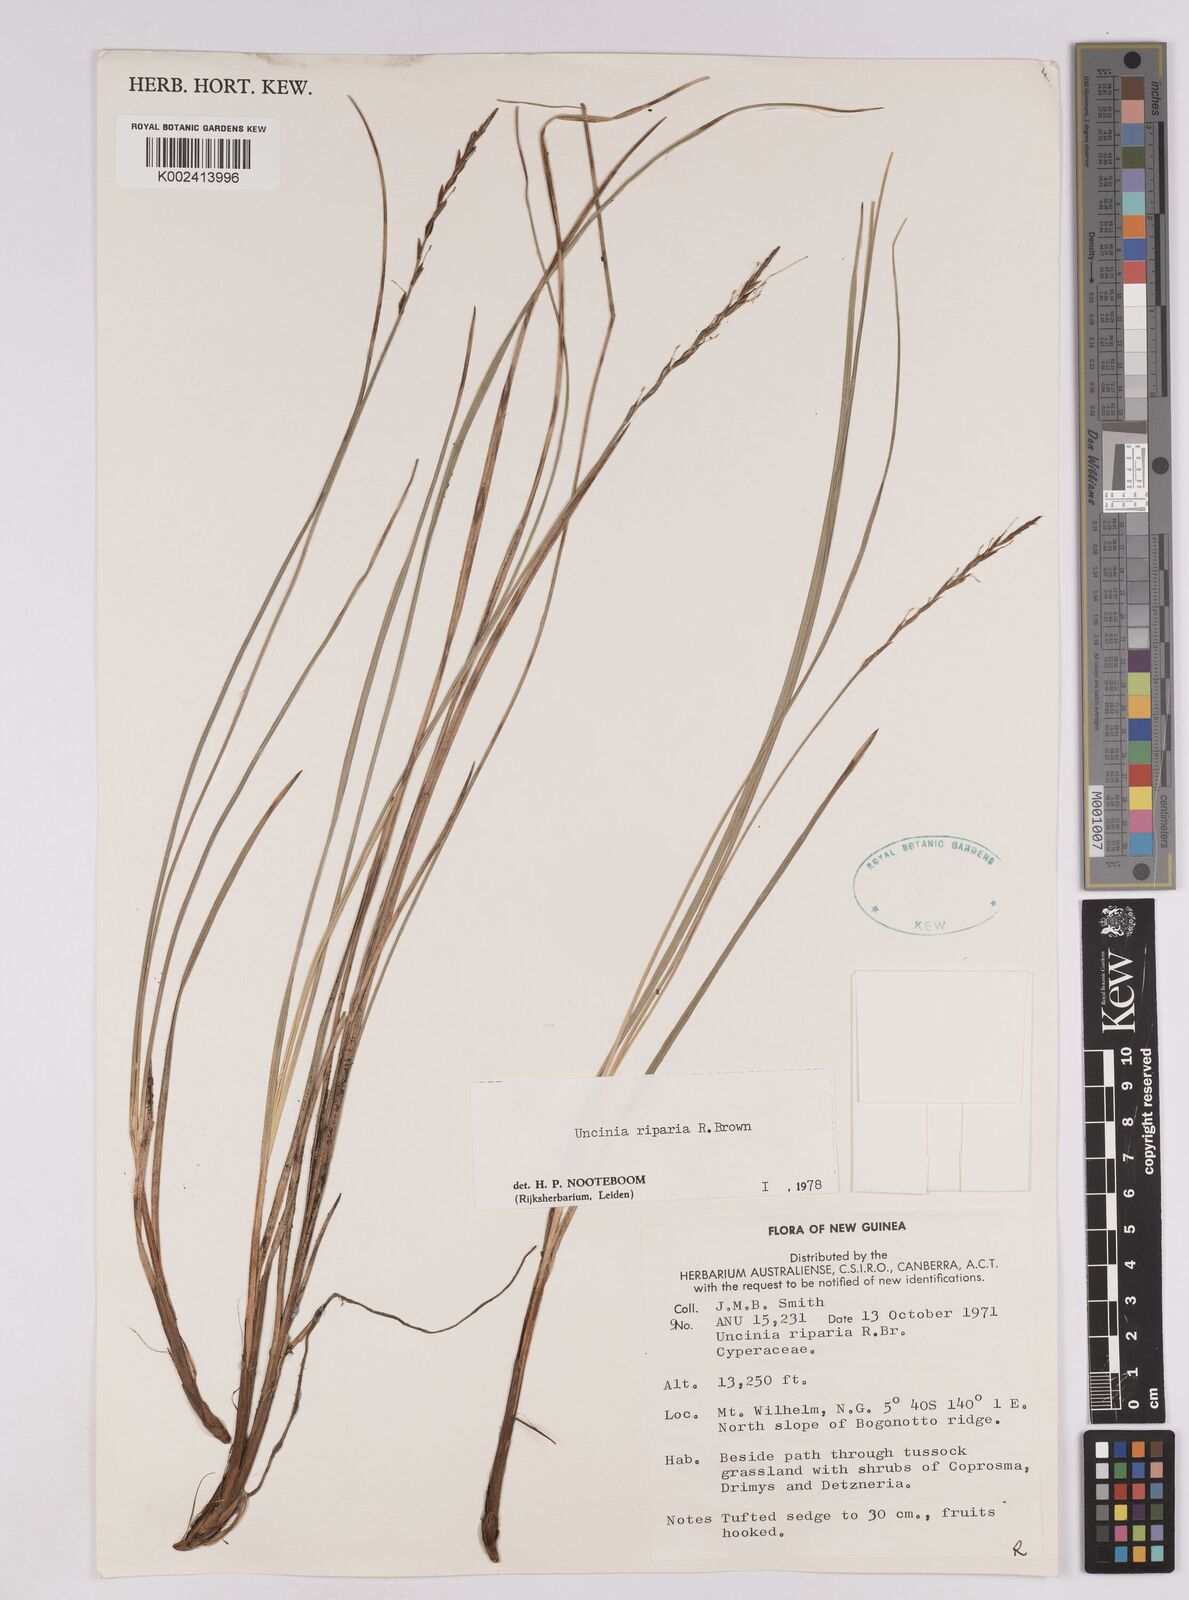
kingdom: Plantae
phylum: Tracheophyta
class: Liliopsida
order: Poales
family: Cyperaceae
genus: Carex
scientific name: Carex sclerophylla
